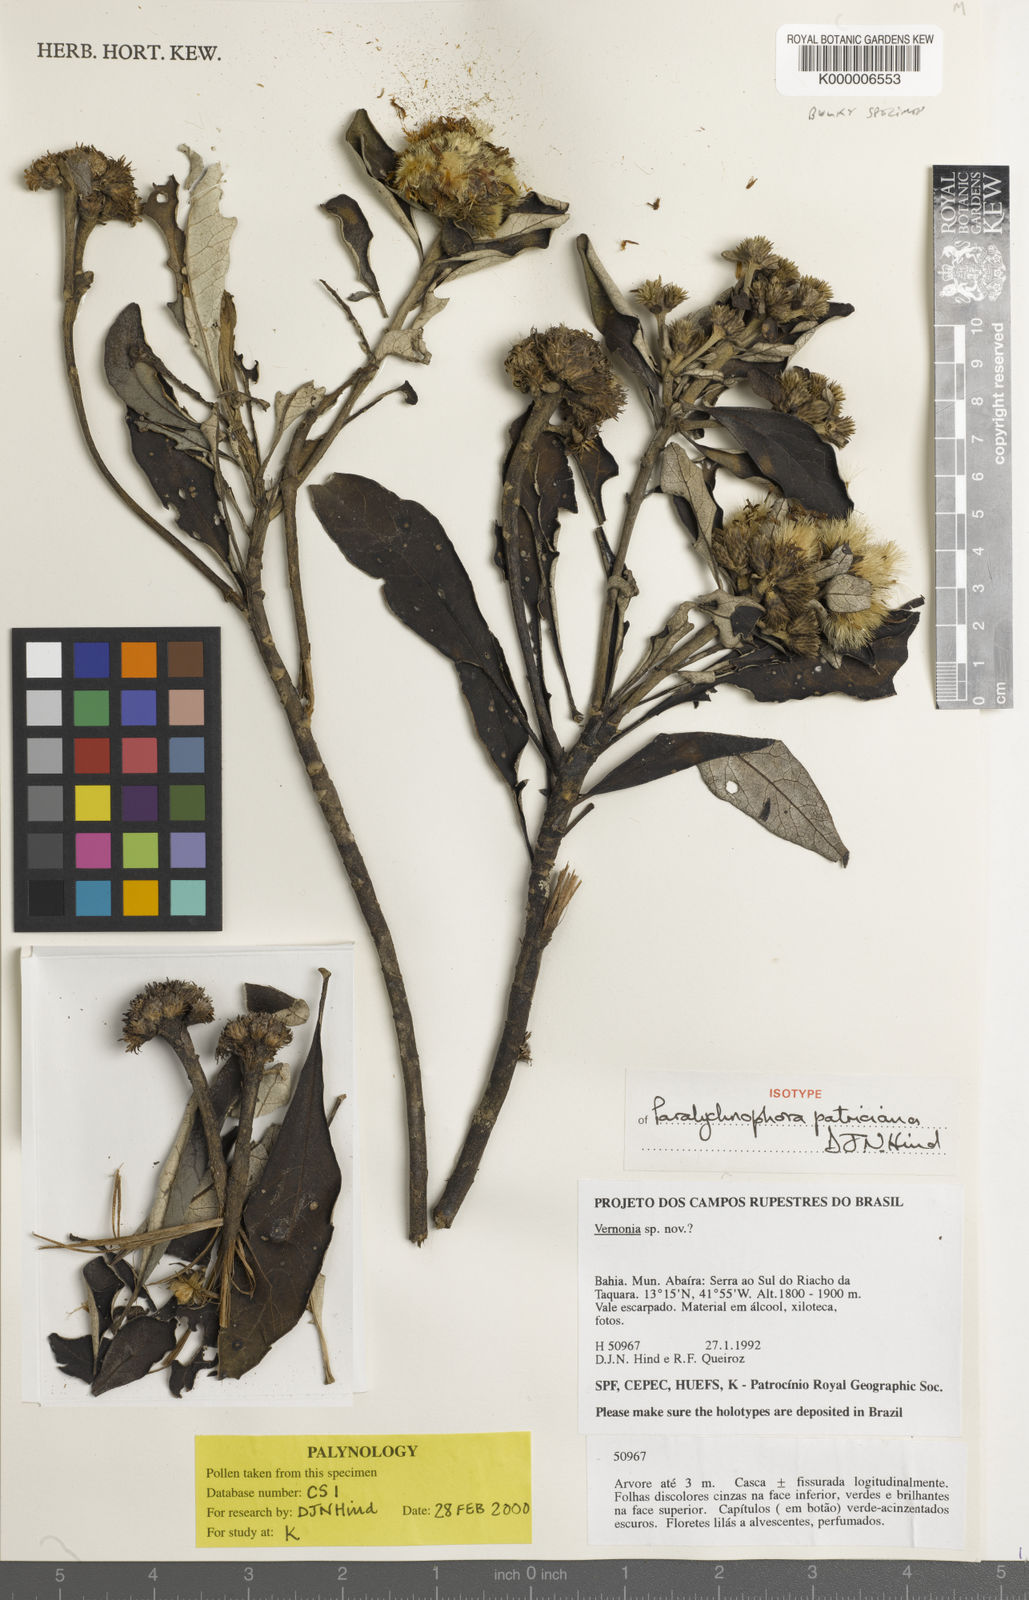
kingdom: Plantae
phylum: Tracheophyta
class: Magnoliopsida
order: Asterales
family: Asteraceae
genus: Paralychnophora
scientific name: Paralychnophora patriciana
